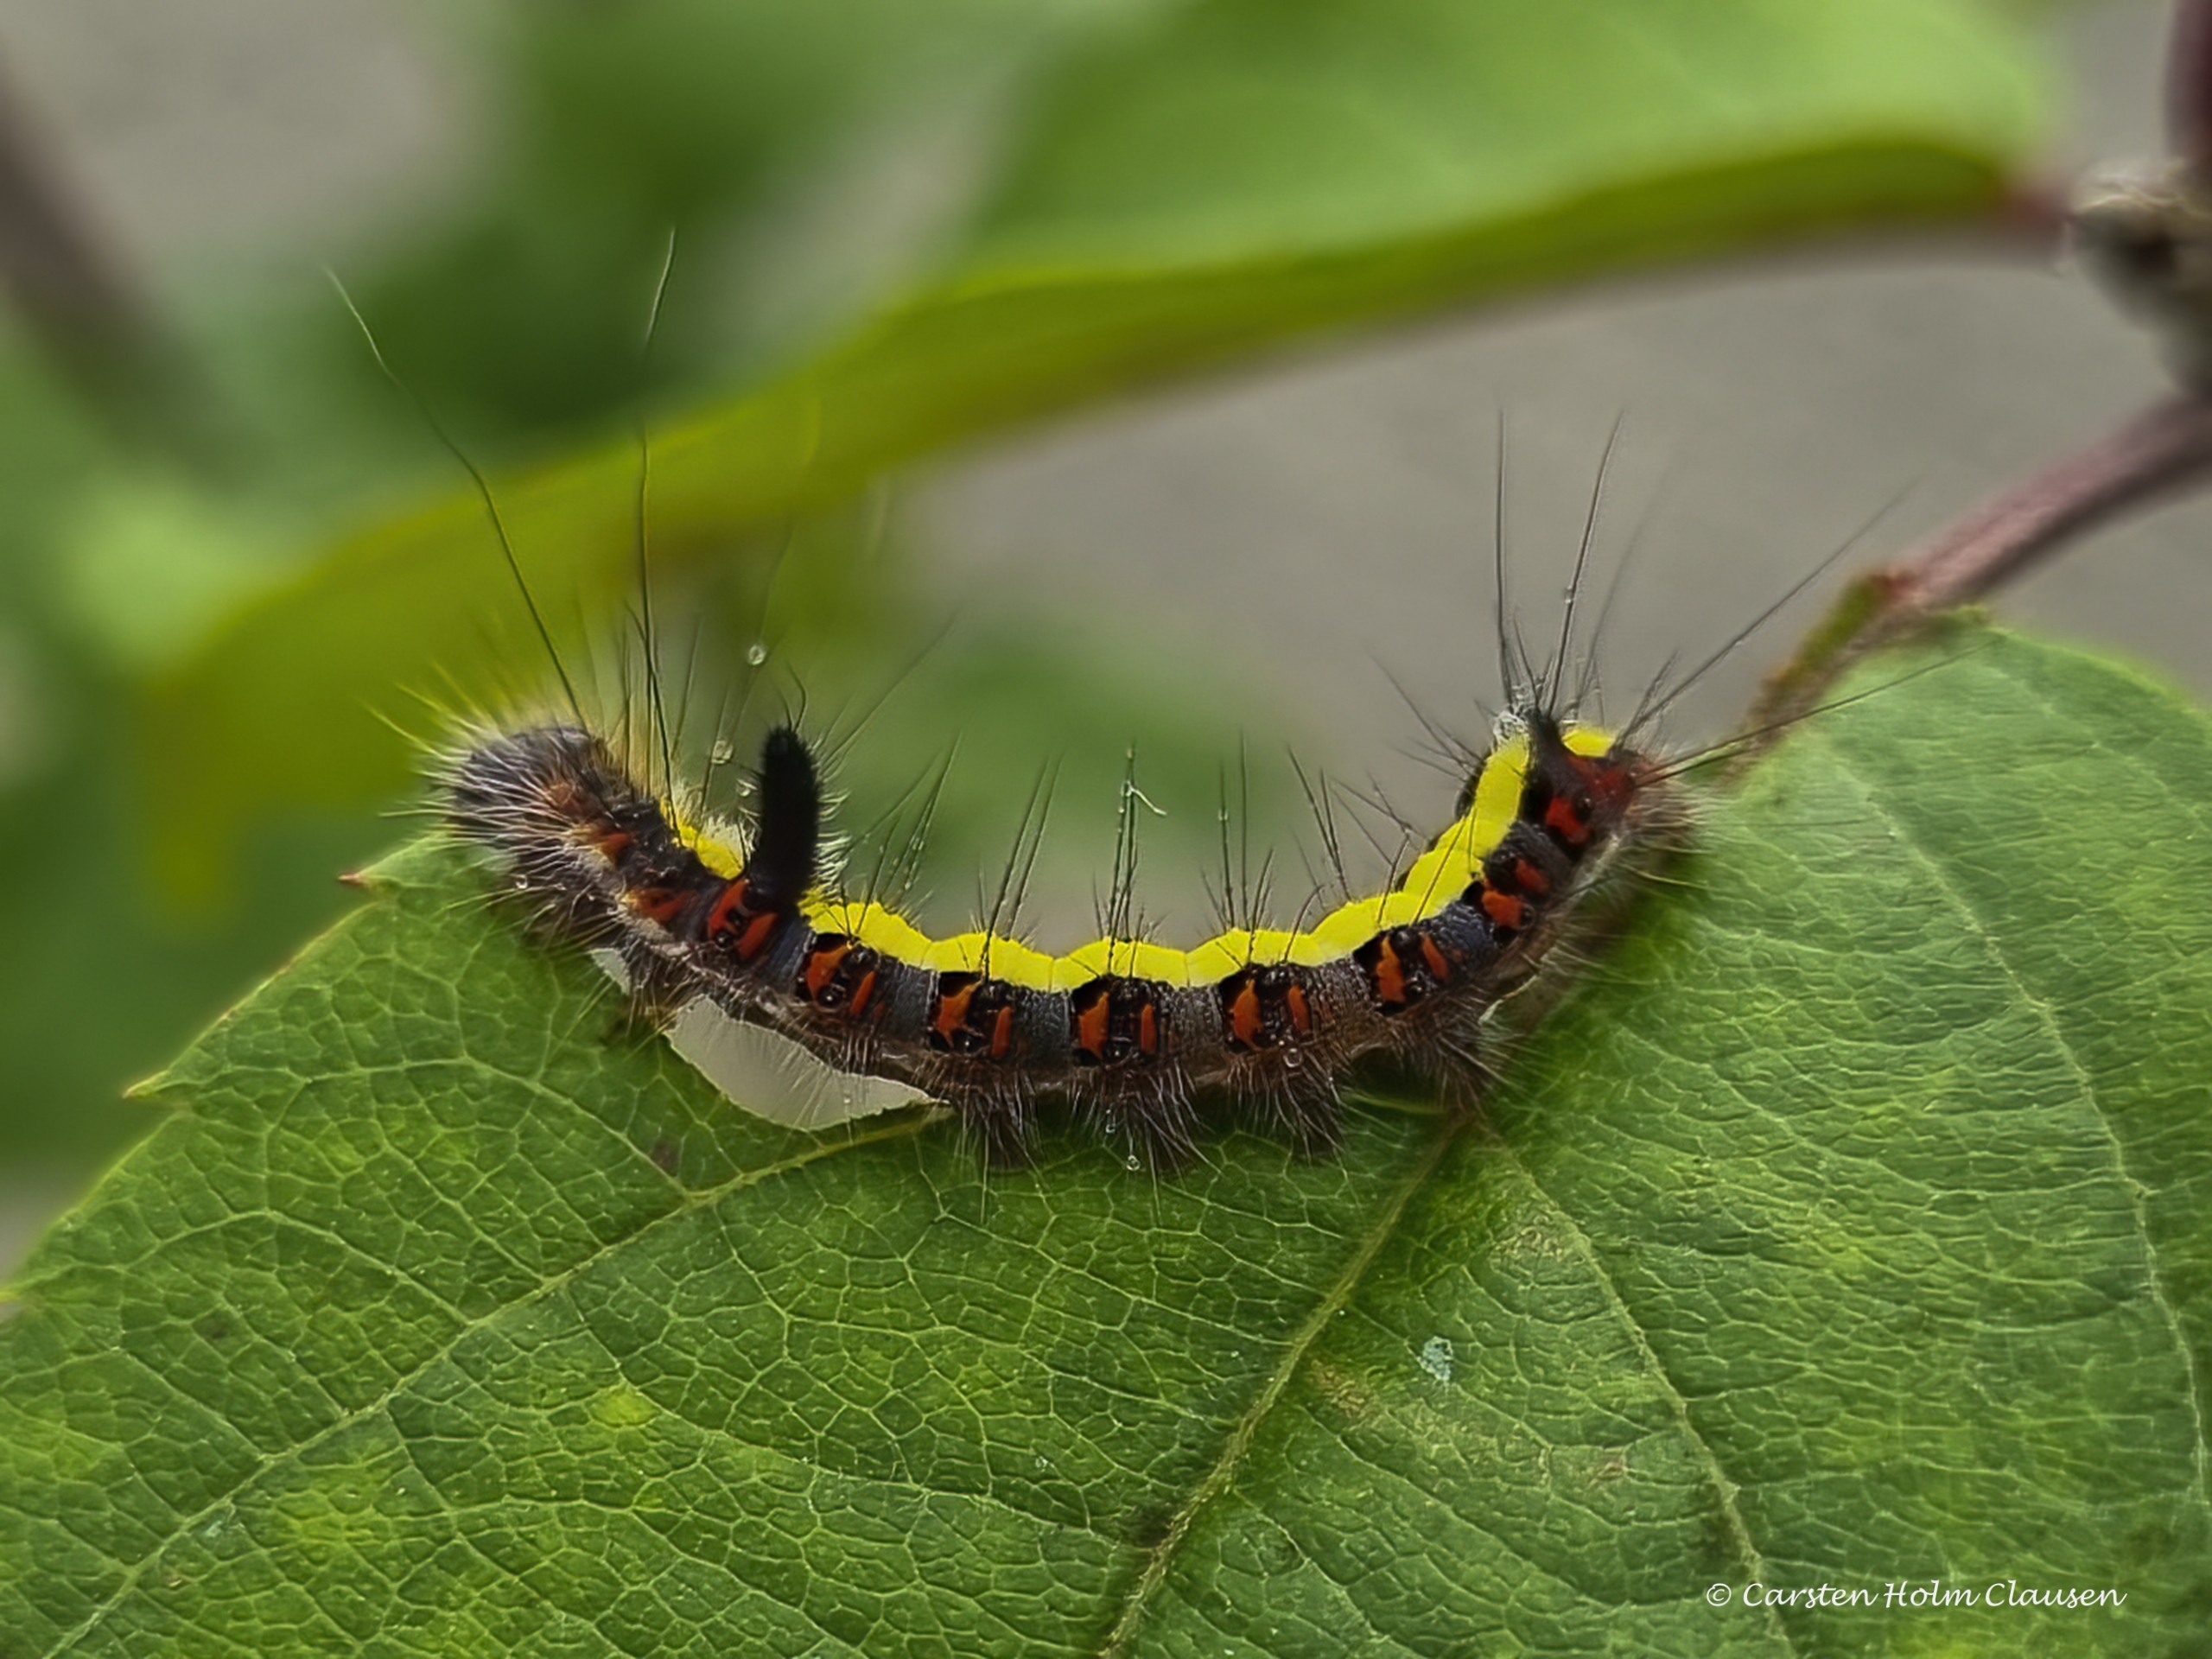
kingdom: Animalia
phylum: Arthropoda
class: Insecta
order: Lepidoptera
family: Noctuidae
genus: Acronicta
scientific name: Acronicta psi
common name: Psi-ugle
